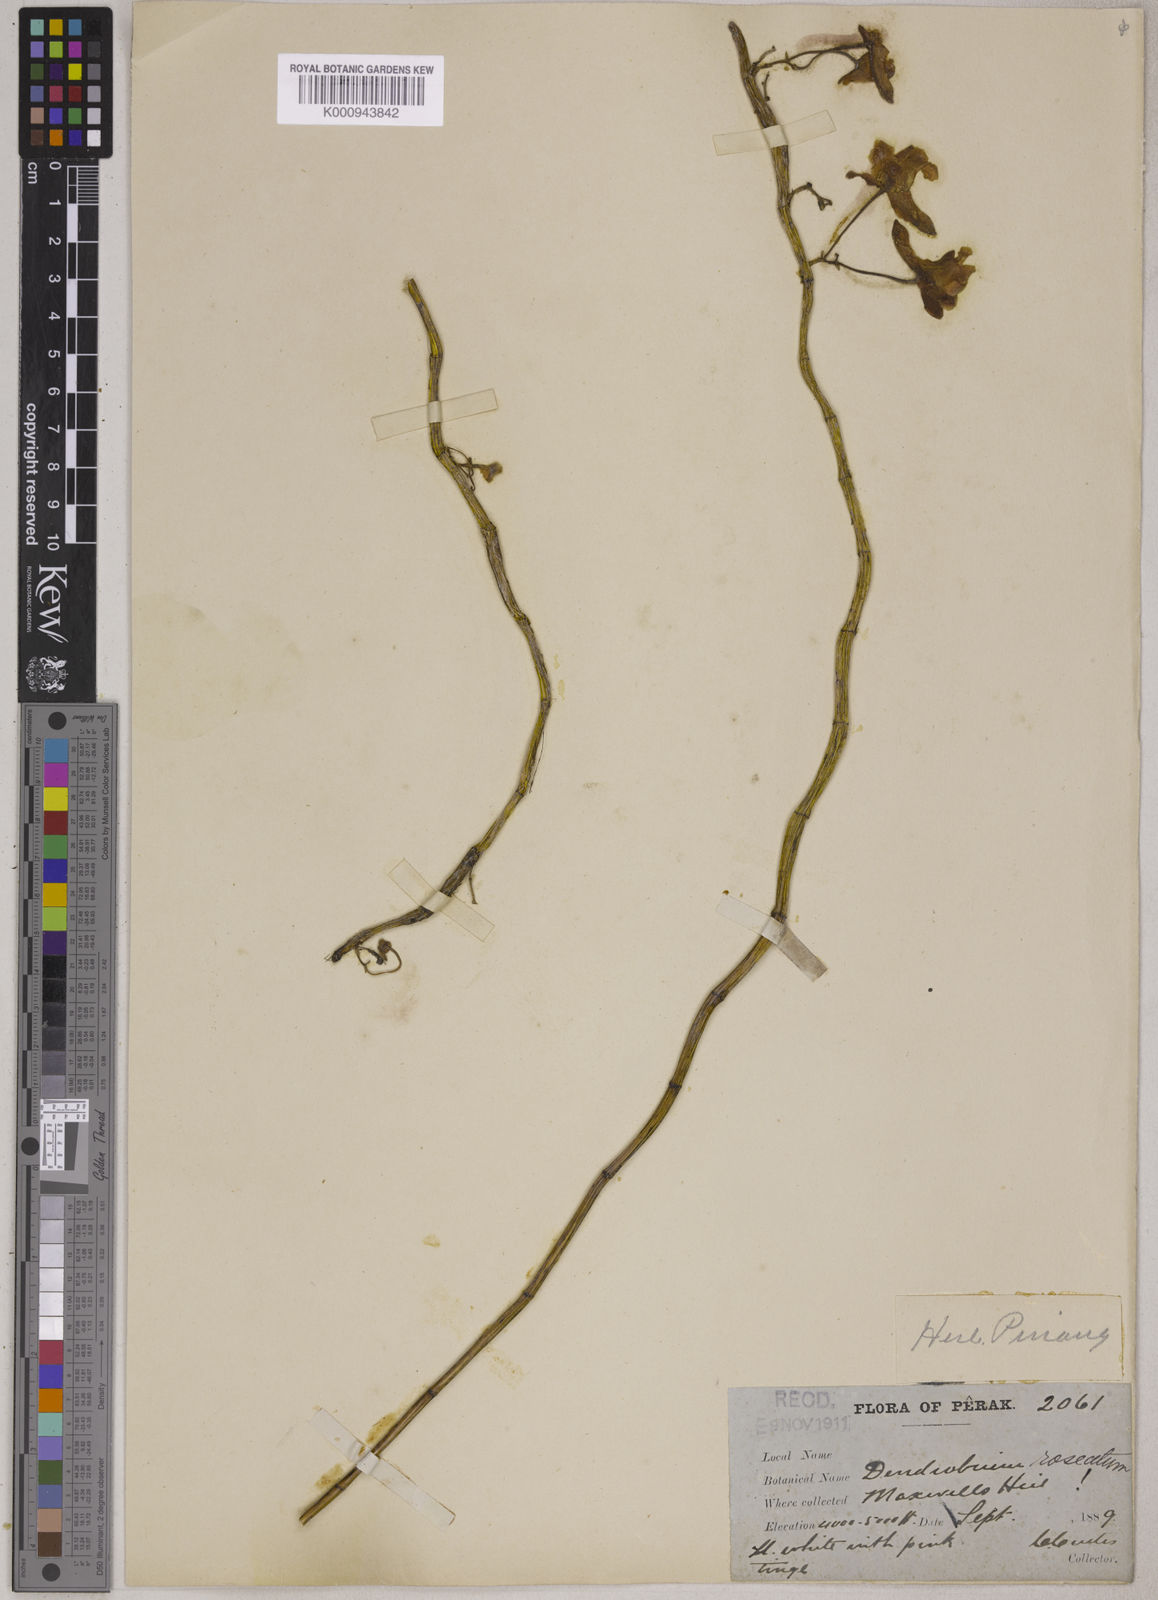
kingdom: Plantae
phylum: Tracheophyta
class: Liliopsida
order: Asparagales
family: Orchidaceae
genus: Dendrobium
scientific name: Dendrobium roseatum
